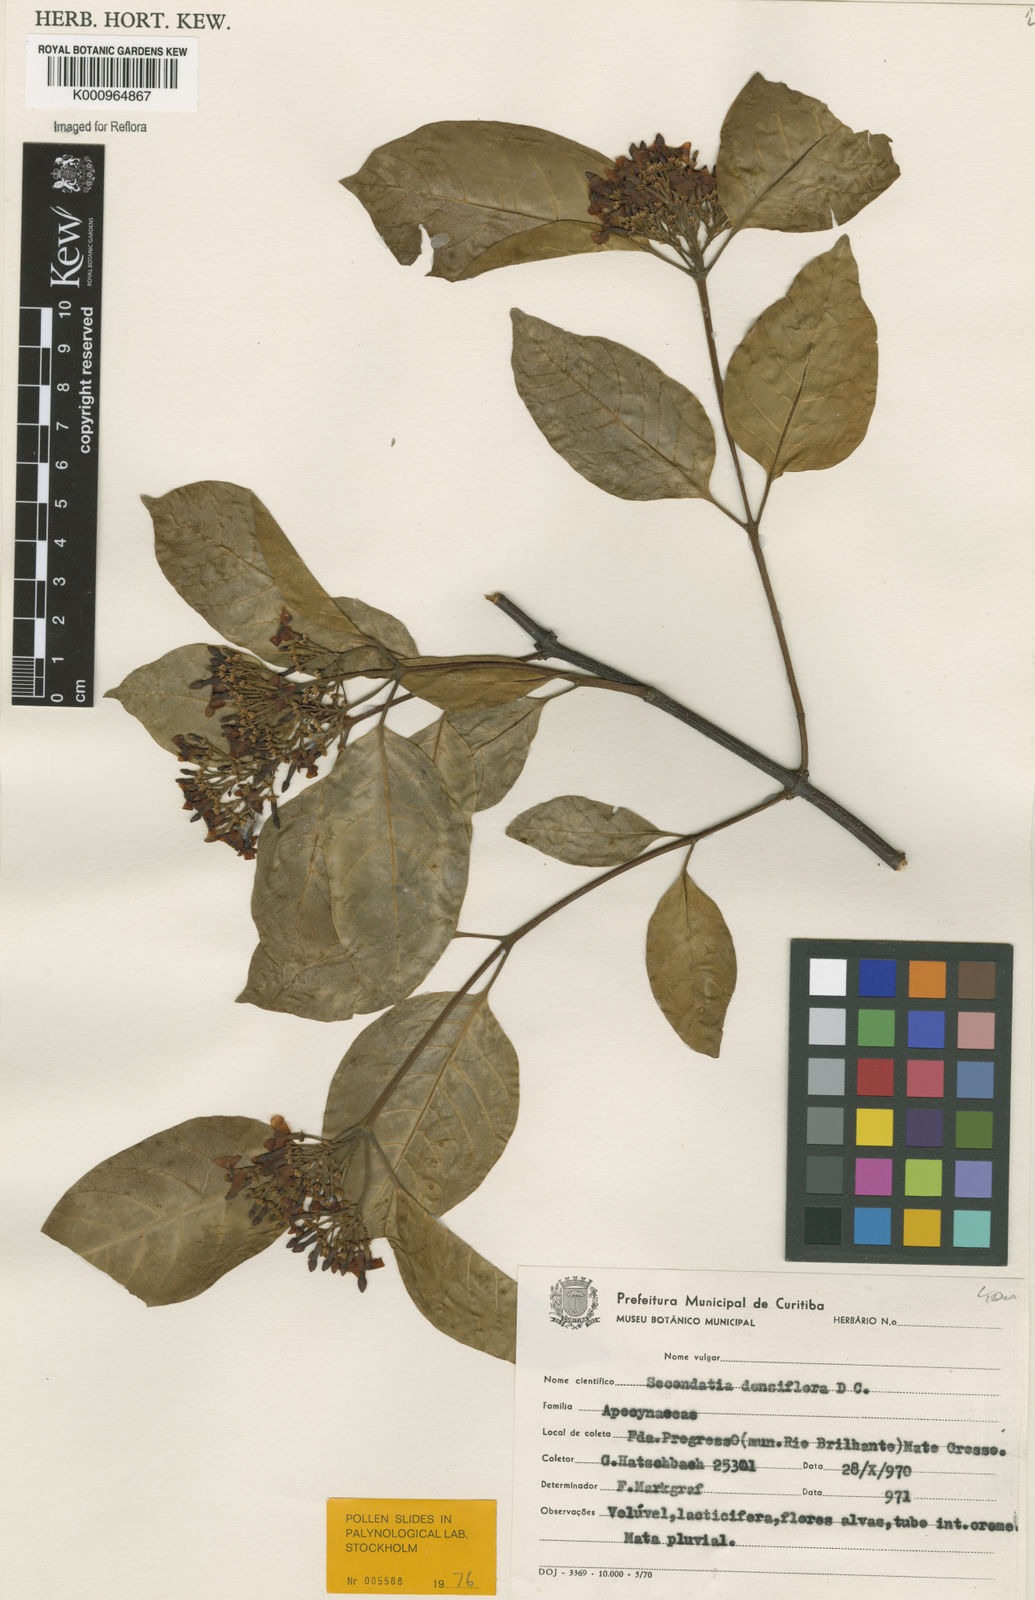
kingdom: Plantae
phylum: Tracheophyta
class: Magnoliopsida
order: Gentianales
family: Apocynaceae
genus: Secondatia
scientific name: Secondatia densiflora
